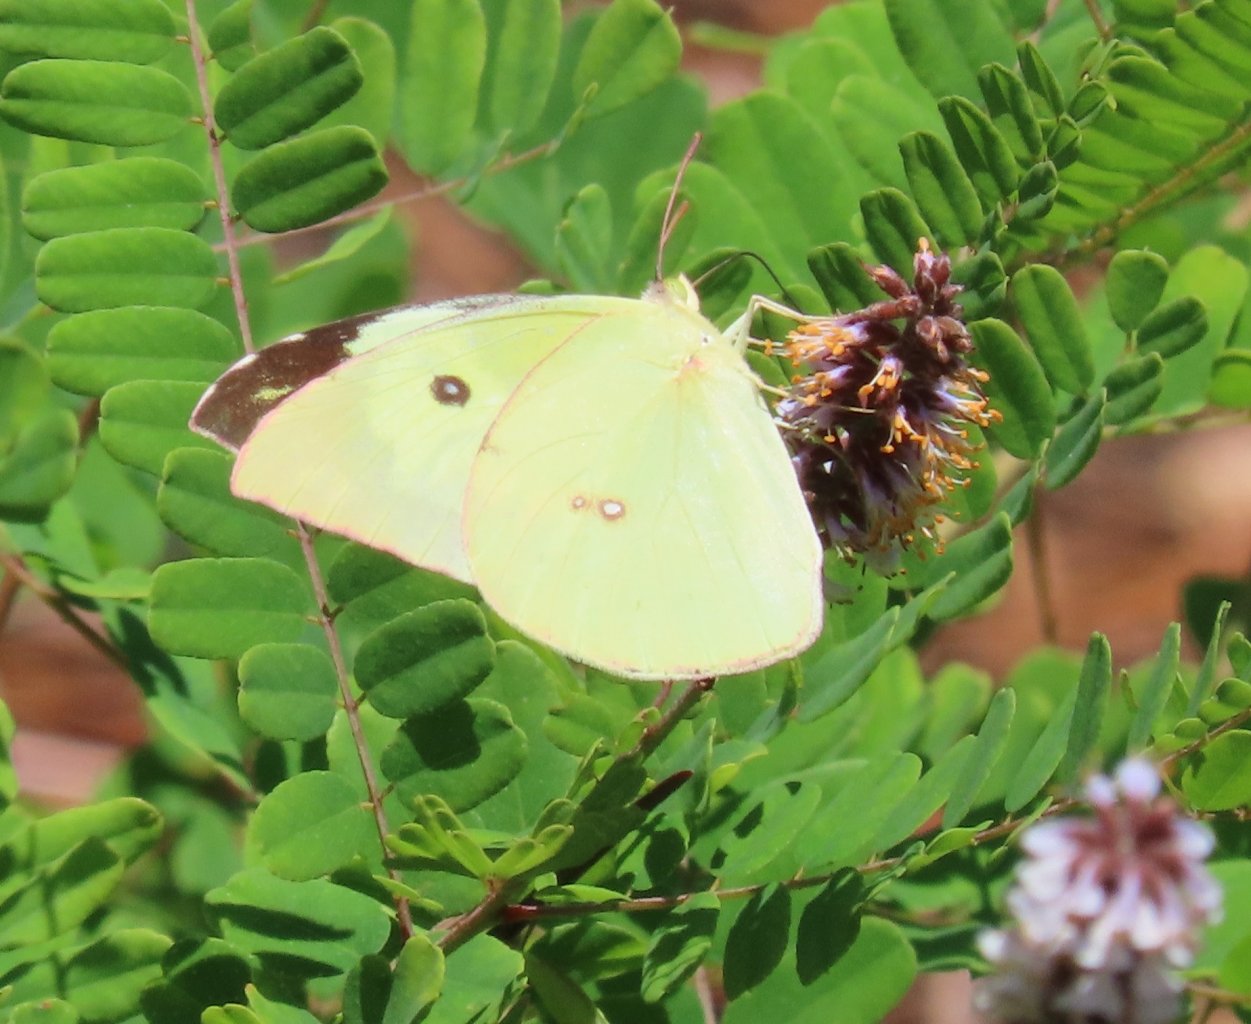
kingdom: Animalia
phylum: Arthropoda
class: Insecta
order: Lepidoptera
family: Pieridae
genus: Zerene
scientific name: Zerene cesonia
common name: Southern Dogface
